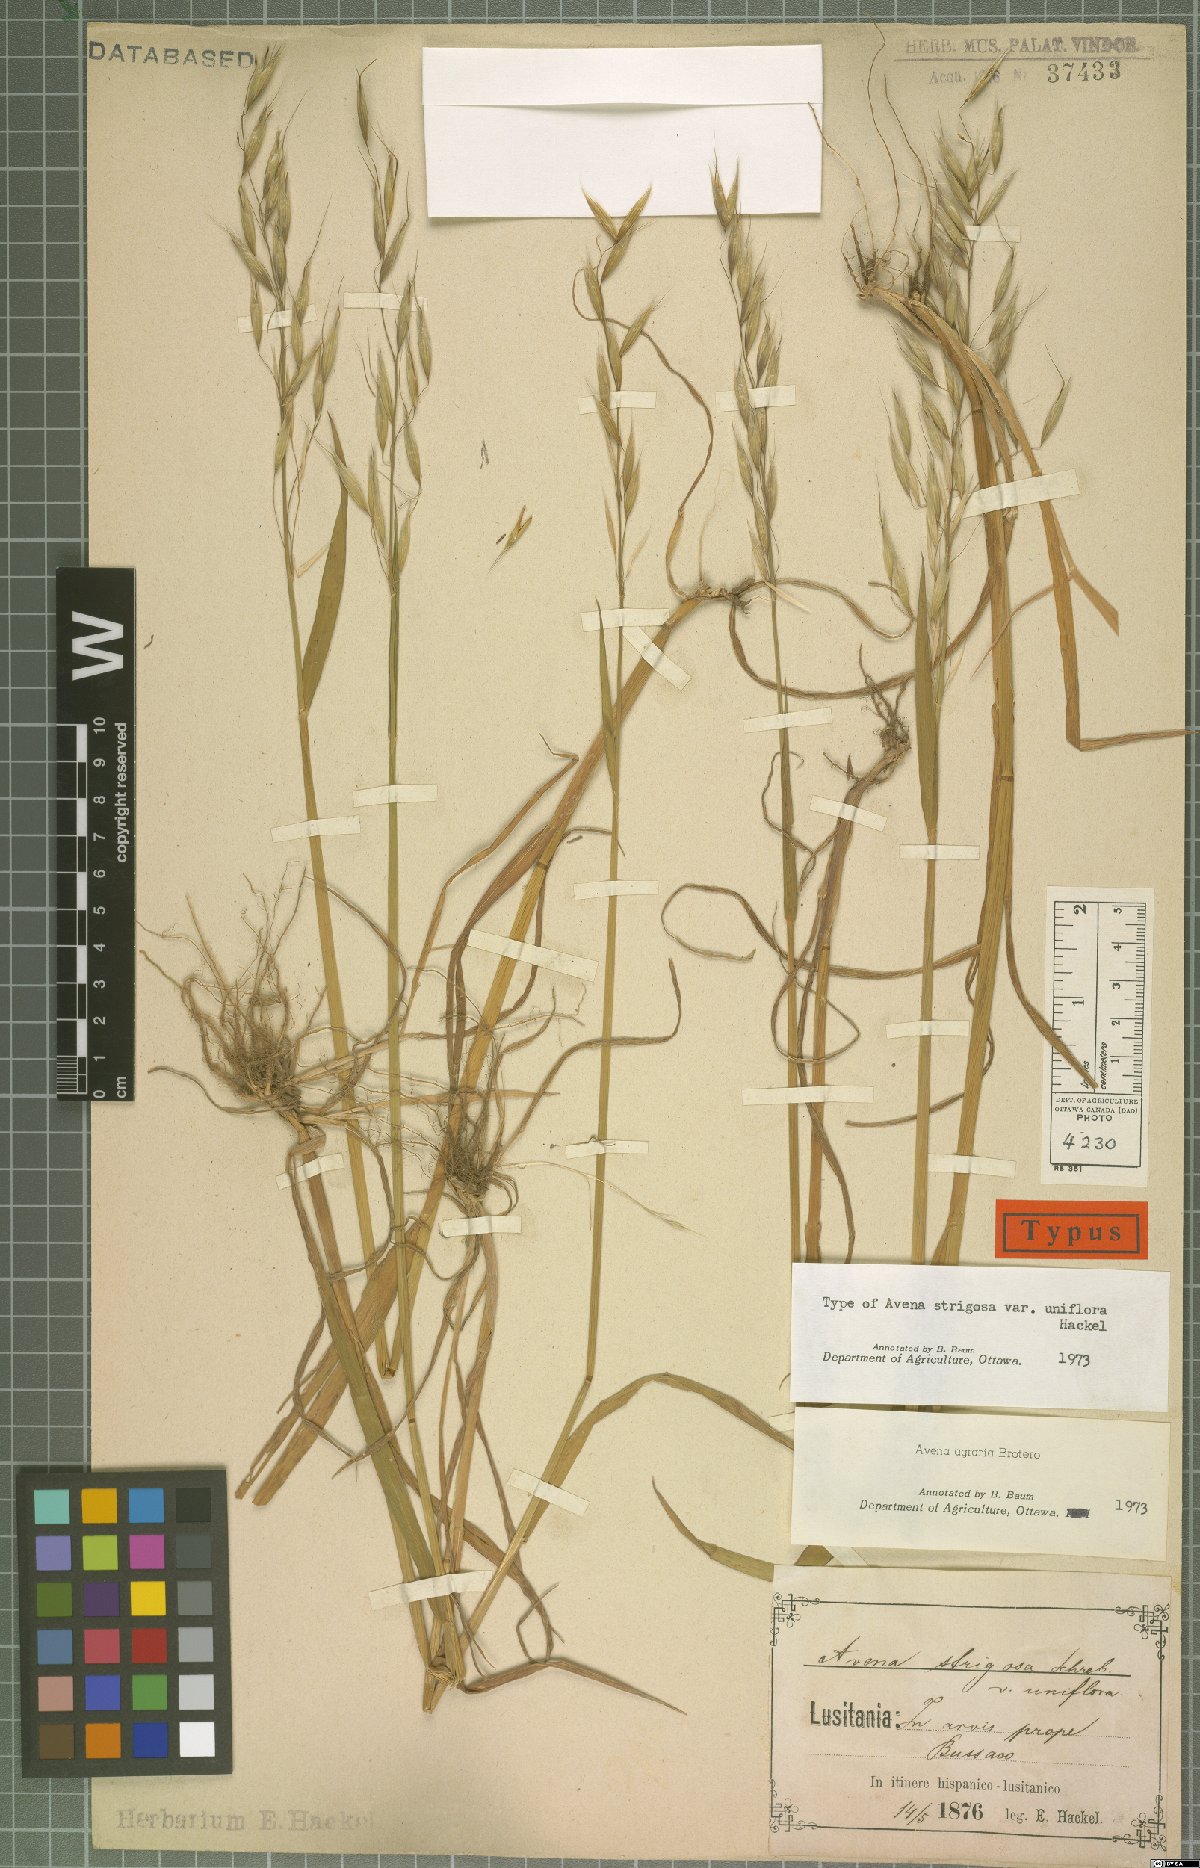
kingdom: Plantae
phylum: Tracheophyta
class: Liliopsida
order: Poales
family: Poaceae
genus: Avena
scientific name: Avena strigosa
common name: Bristle oat
